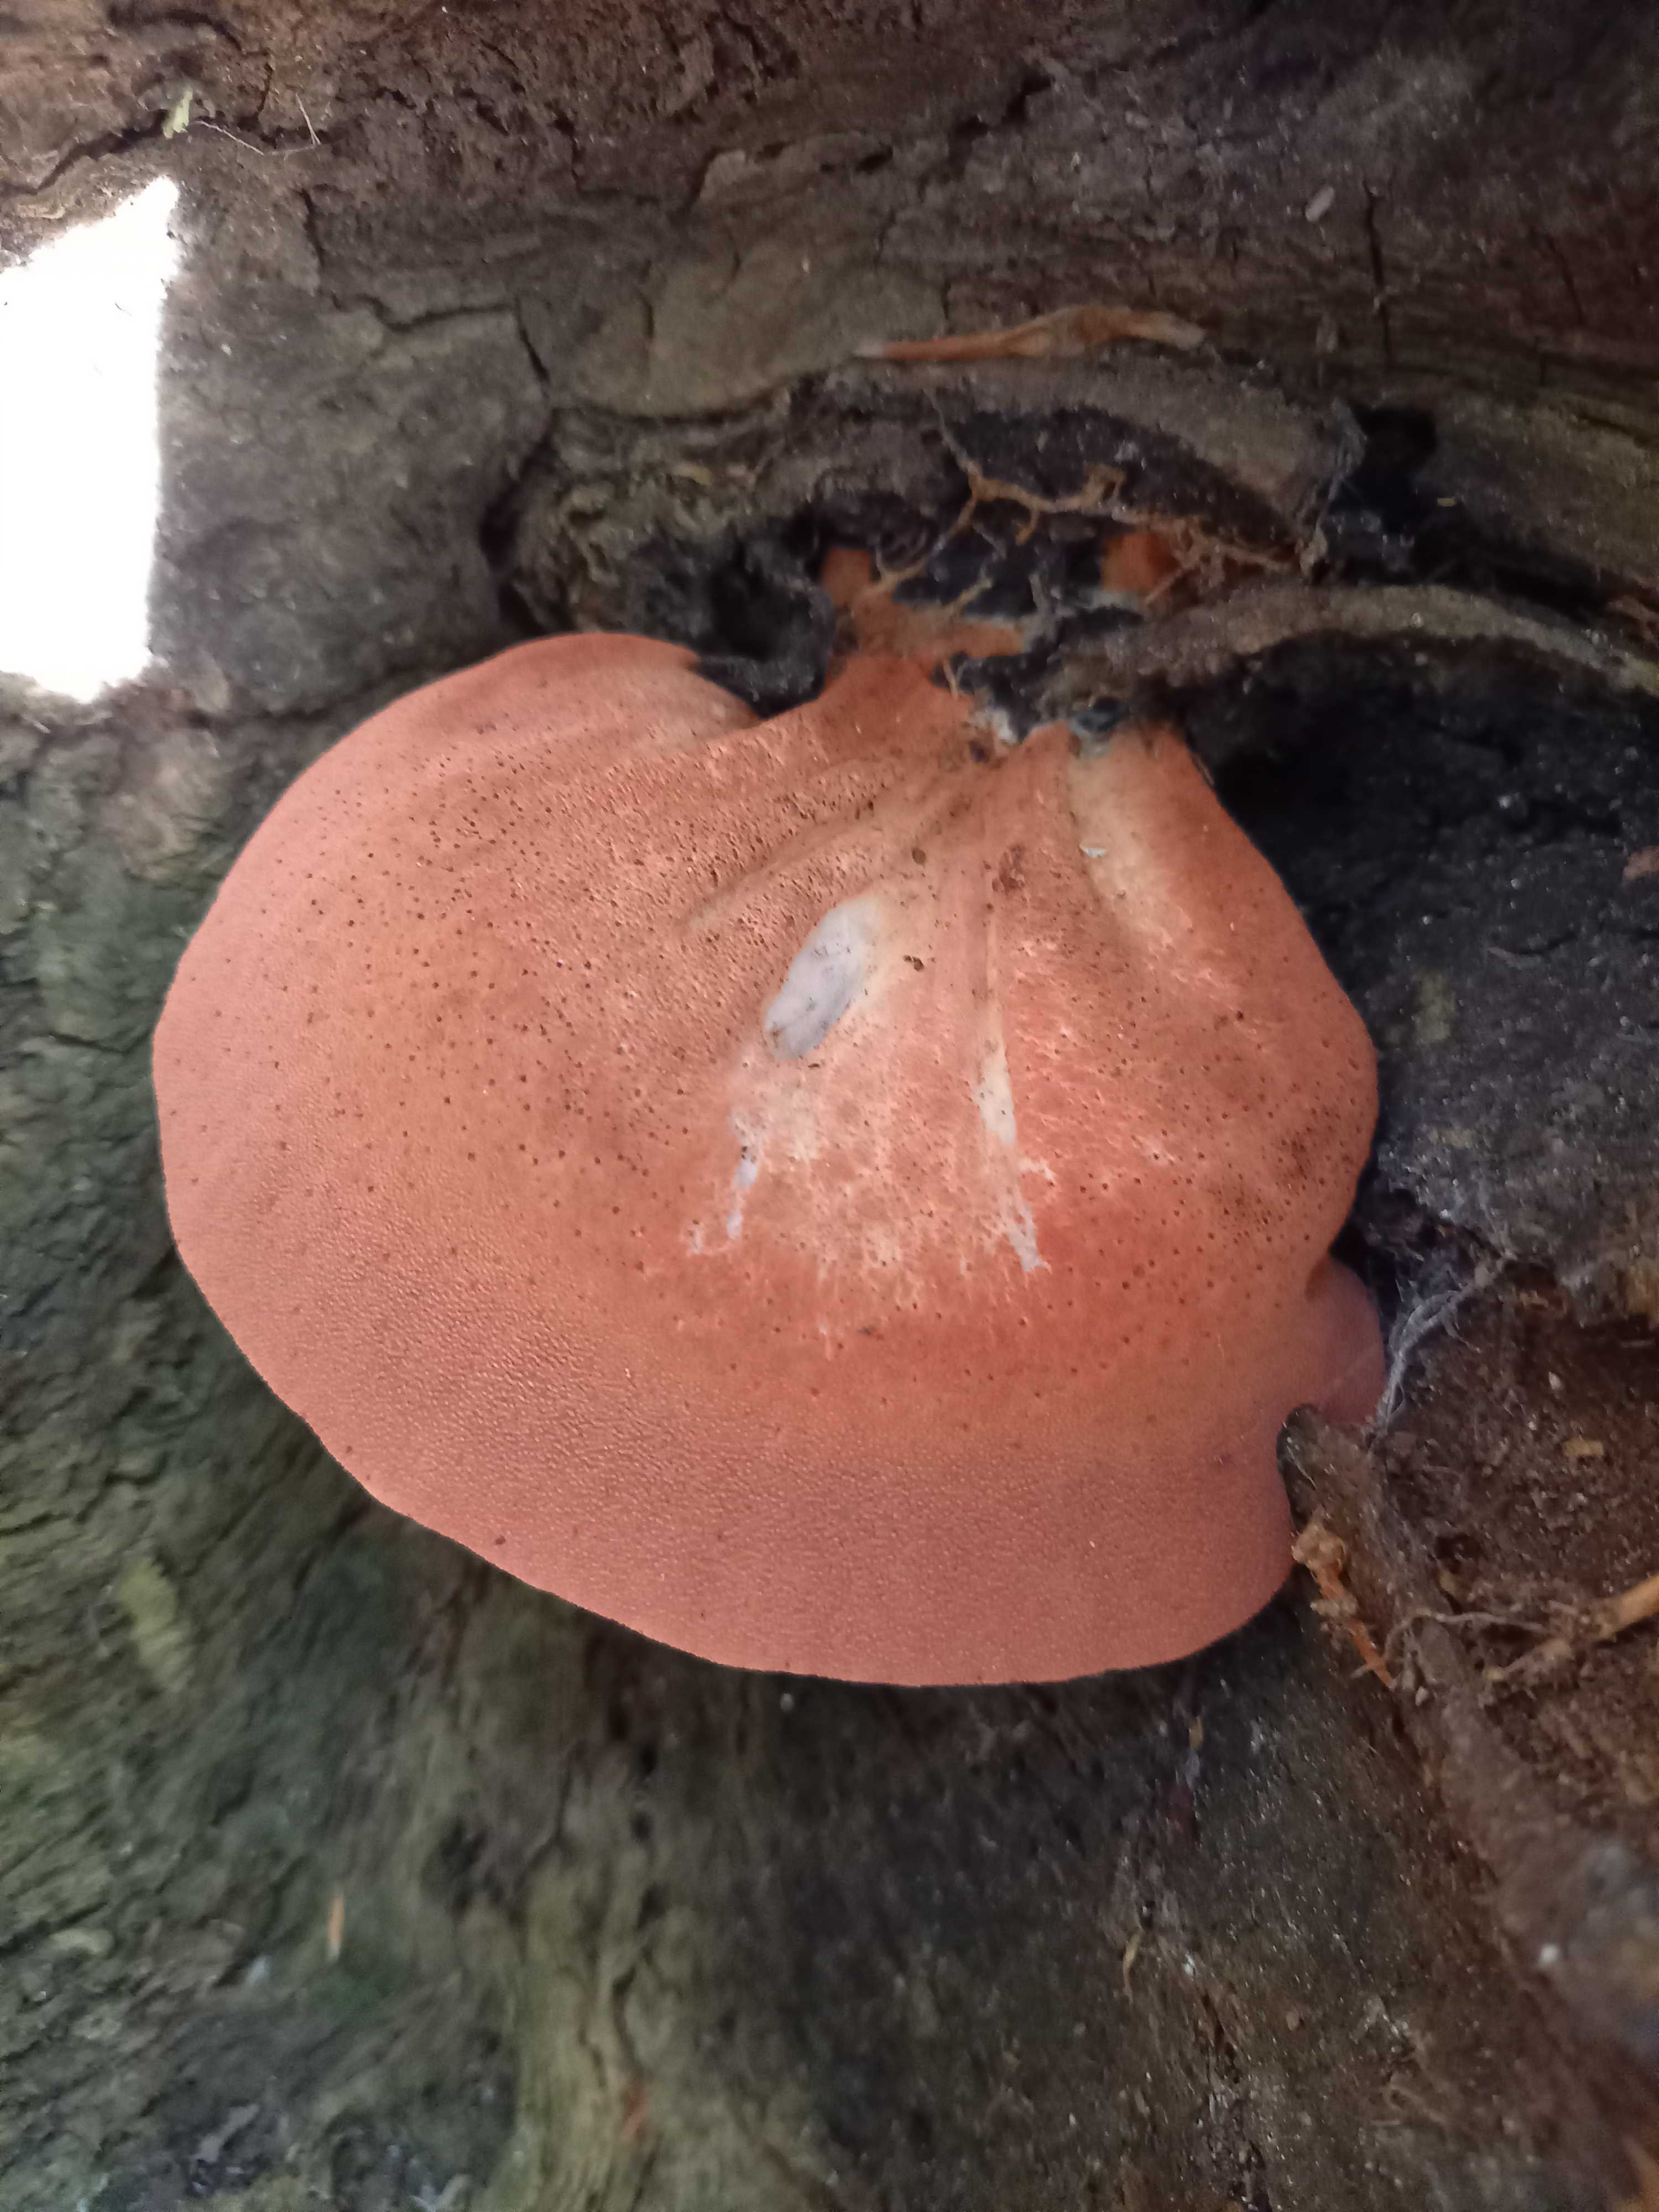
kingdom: Fungi
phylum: Basidiomycota
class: Agaricomycetes
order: Agaricales
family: Fistulinaceae
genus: Fistulina
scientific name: Fistulina hepatica
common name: oksetunge
